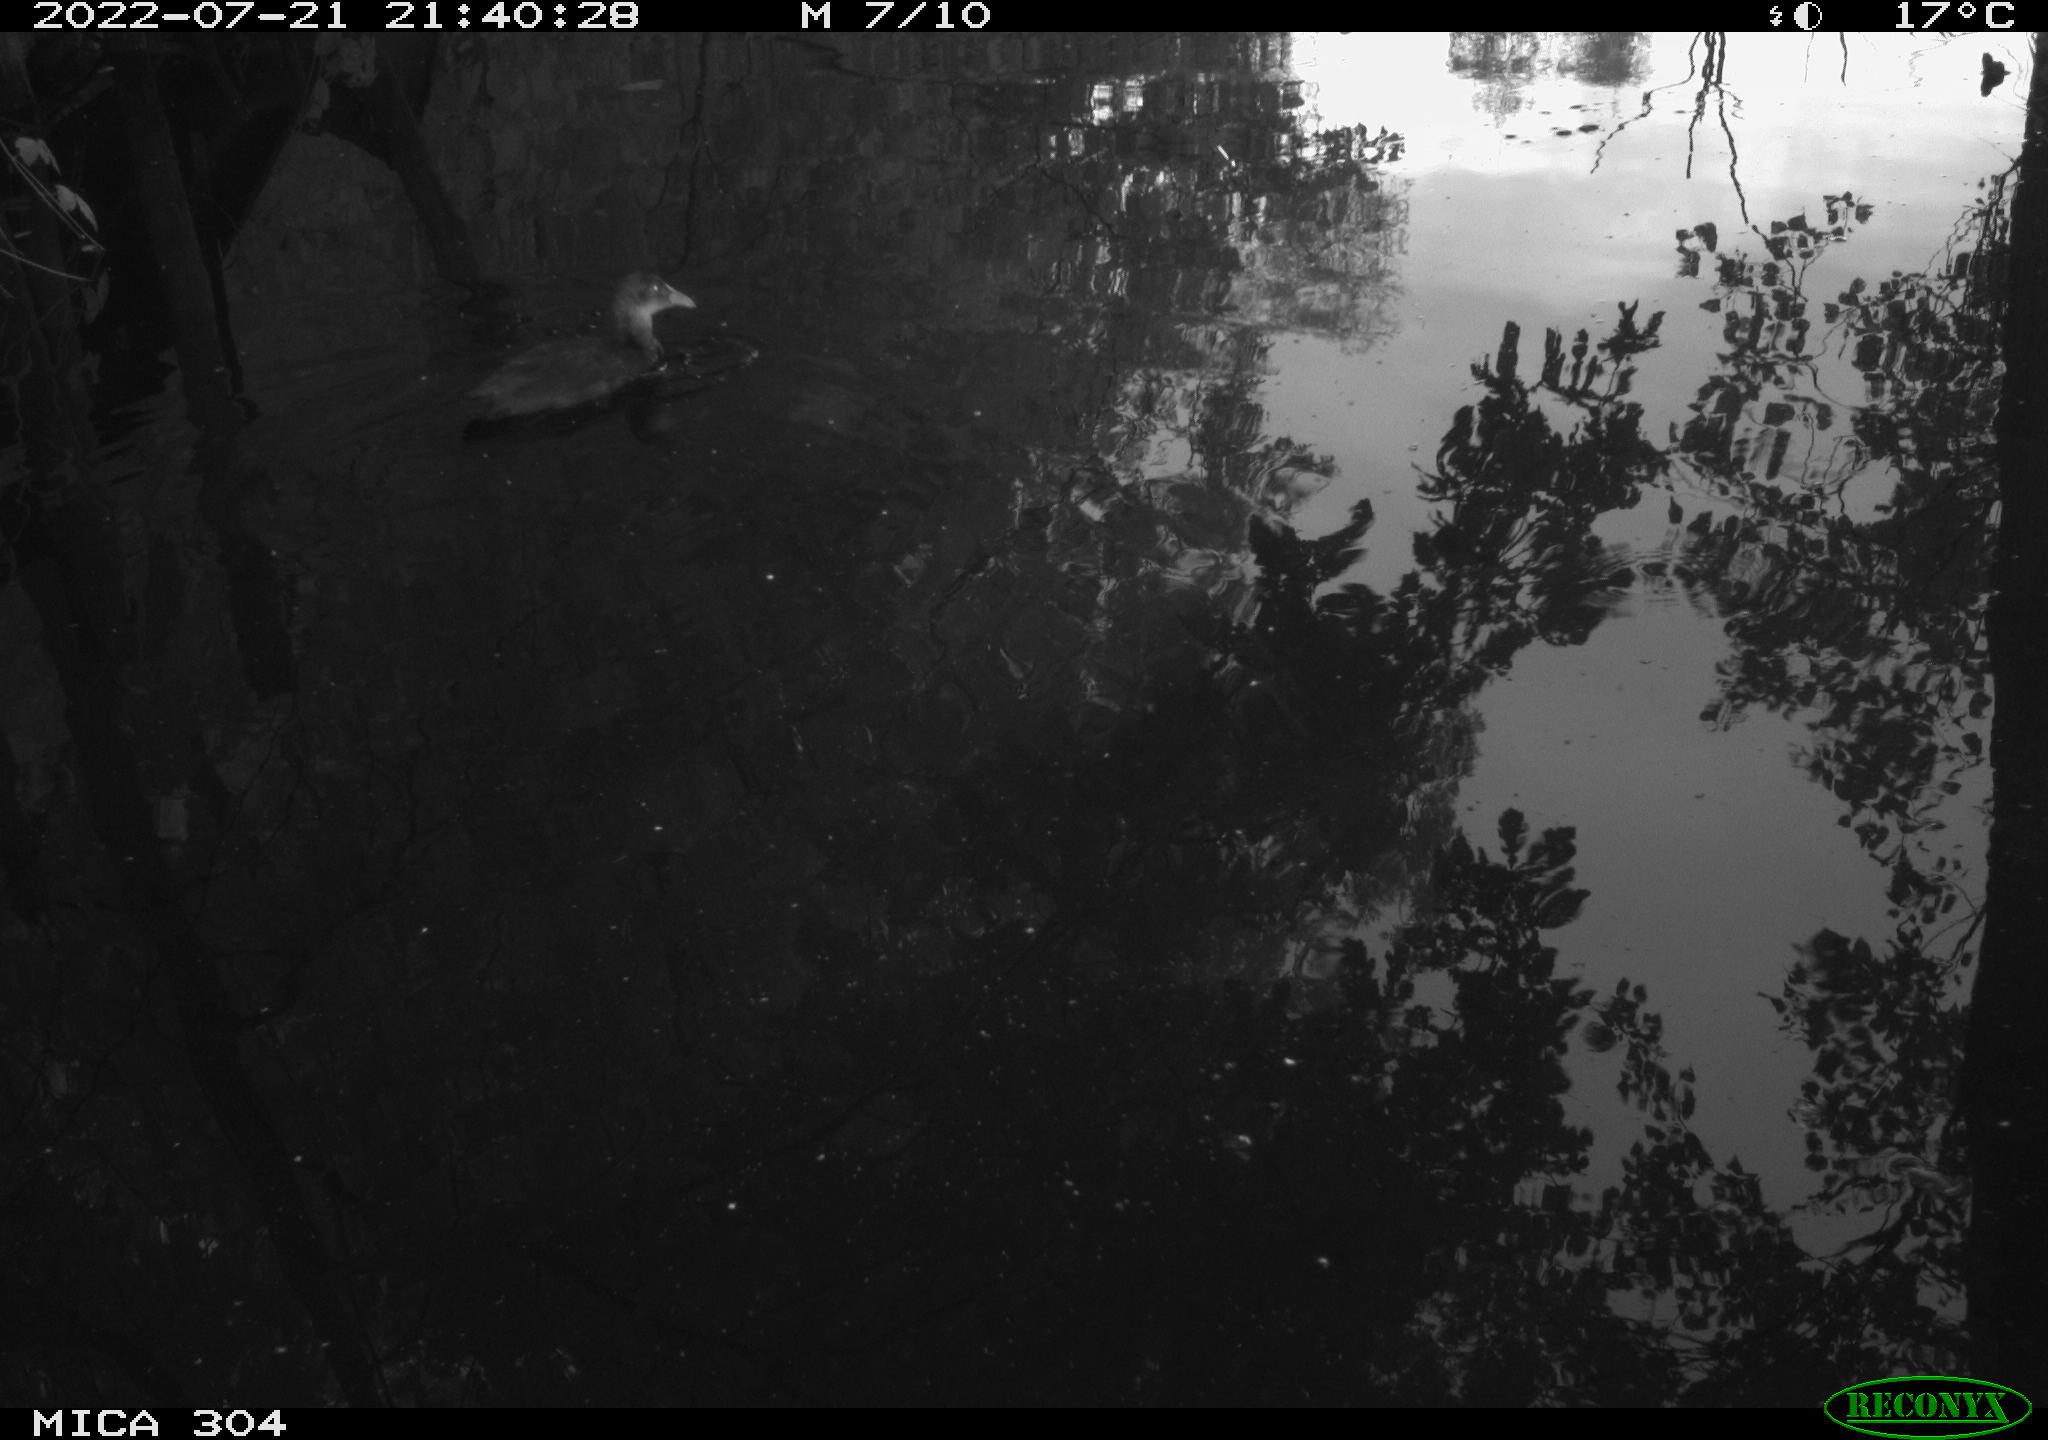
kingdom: Animalia
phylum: Chordata
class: Aves
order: Gruiformes
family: Rallidae
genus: Fulica
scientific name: Fulica atra
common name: Eurasian coot
